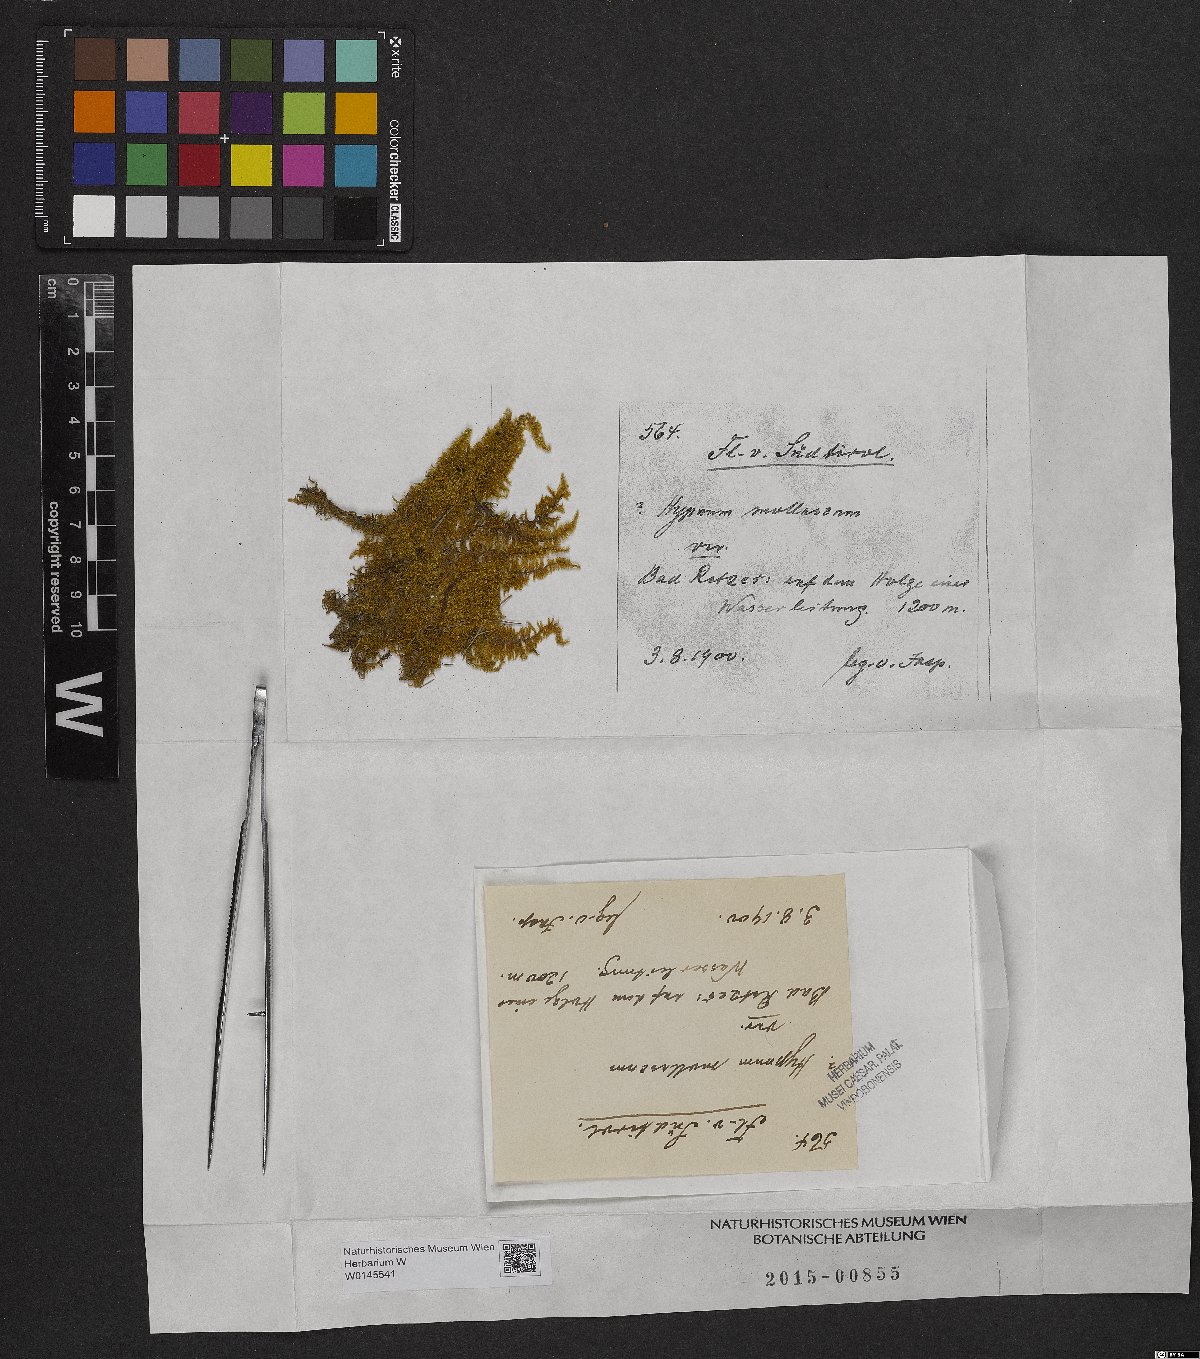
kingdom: Plantae
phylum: Bryophyta
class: Bryopsida
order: Hypnales
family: Myuriaceae
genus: Ctenidium
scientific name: Ctenidium molluscum
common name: Chalk comb-moss
